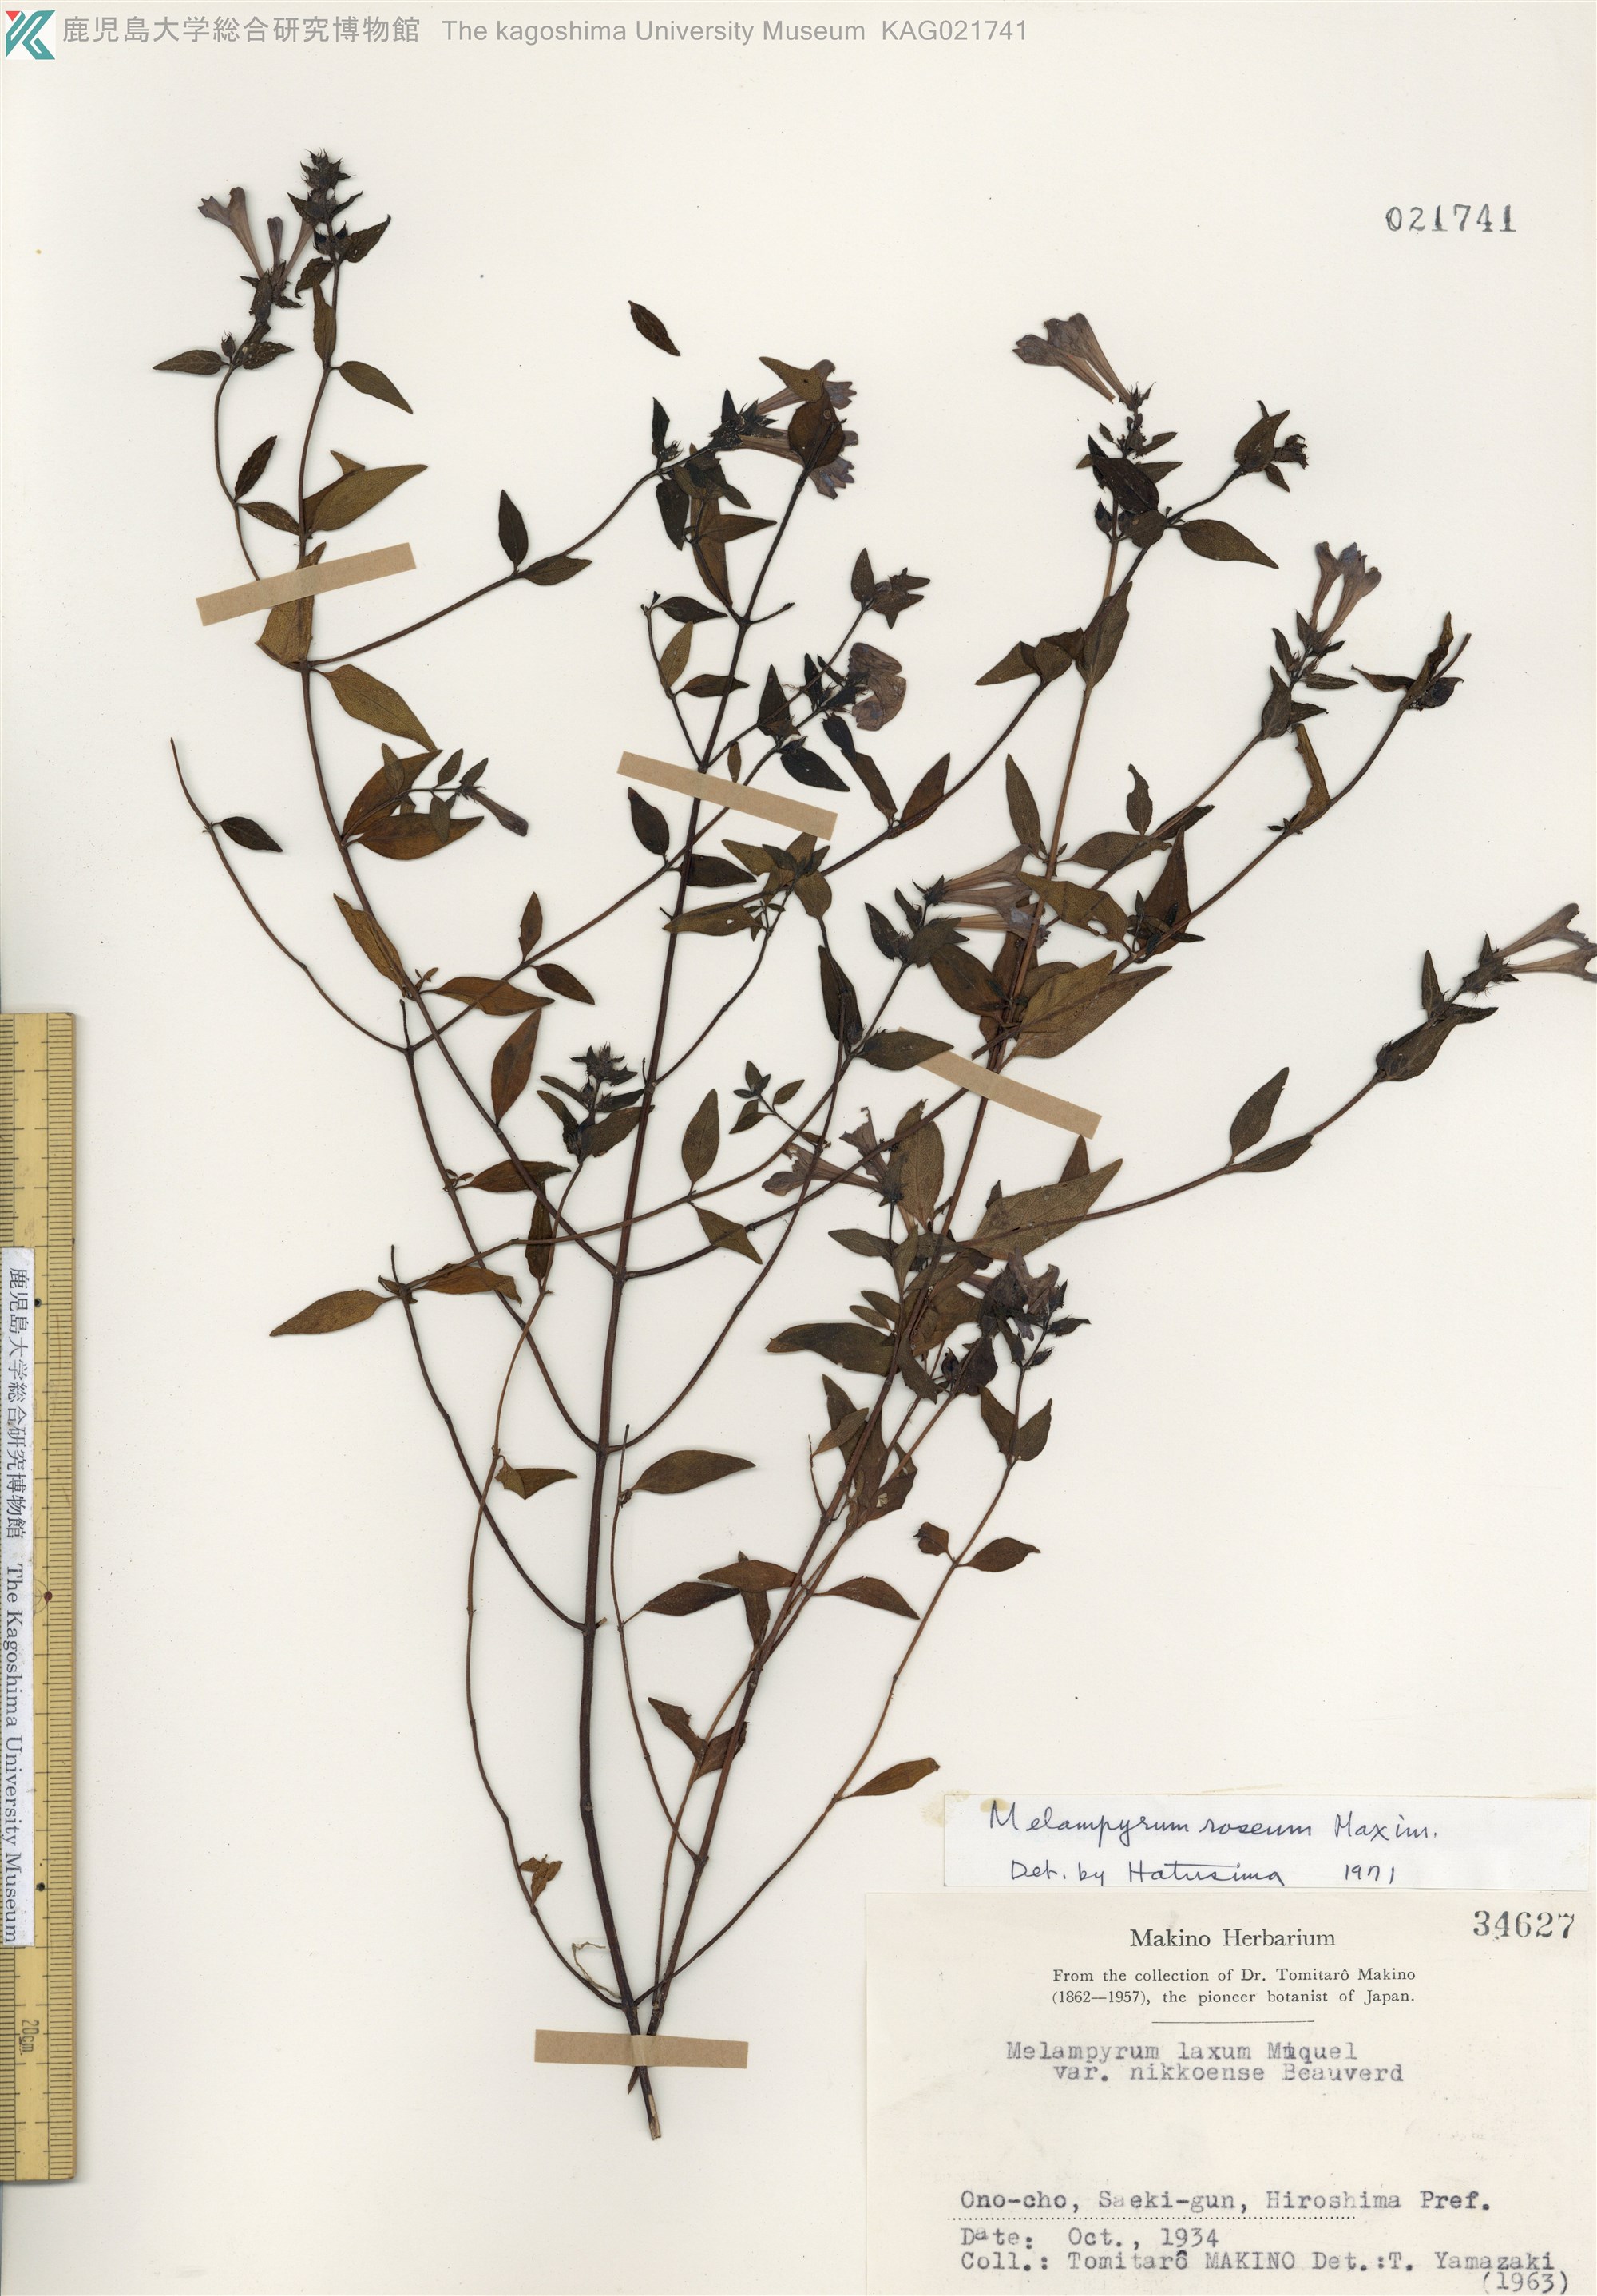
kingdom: Plantae
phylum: Tracheophyta
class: Magnoliopsida
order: Lamiales
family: Orobanchaceae
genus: Melampyrum
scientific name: Melampyrum roseum
